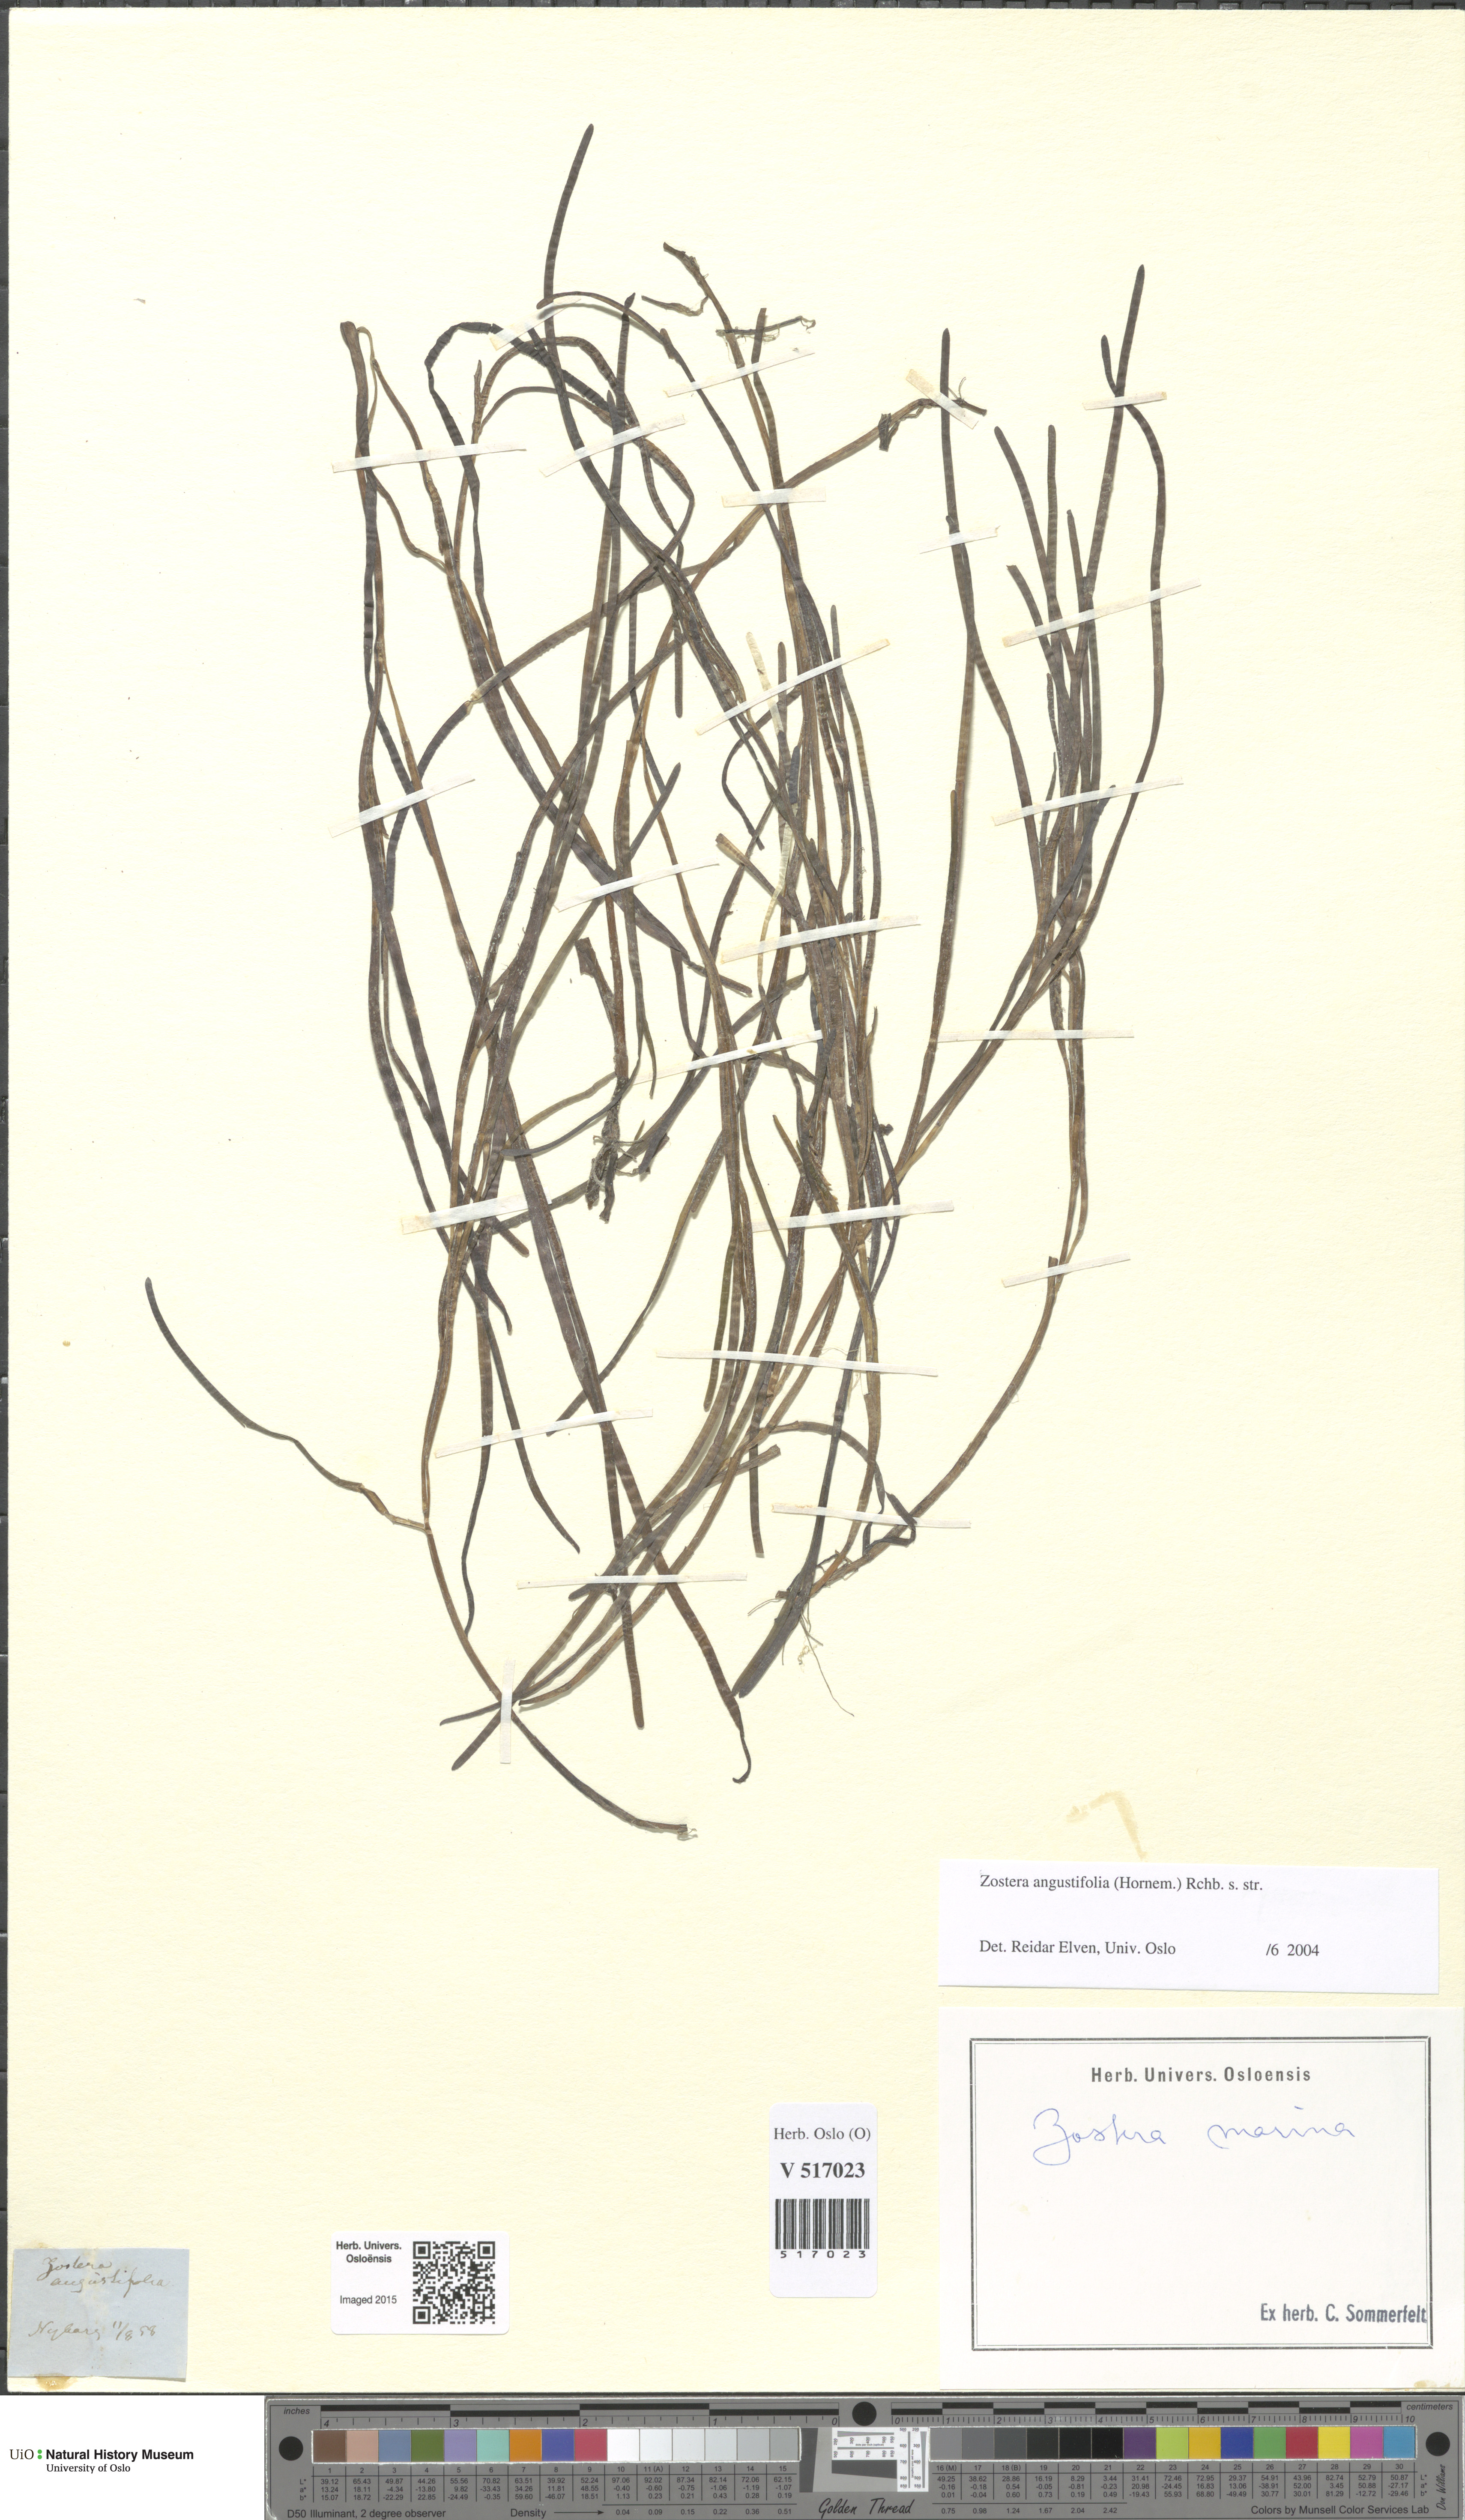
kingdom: Plantae
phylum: Tracheophyta
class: Liliopsida
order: Alismatales
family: Zosteraceae
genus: Zostera
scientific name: Zostera angustifolia
